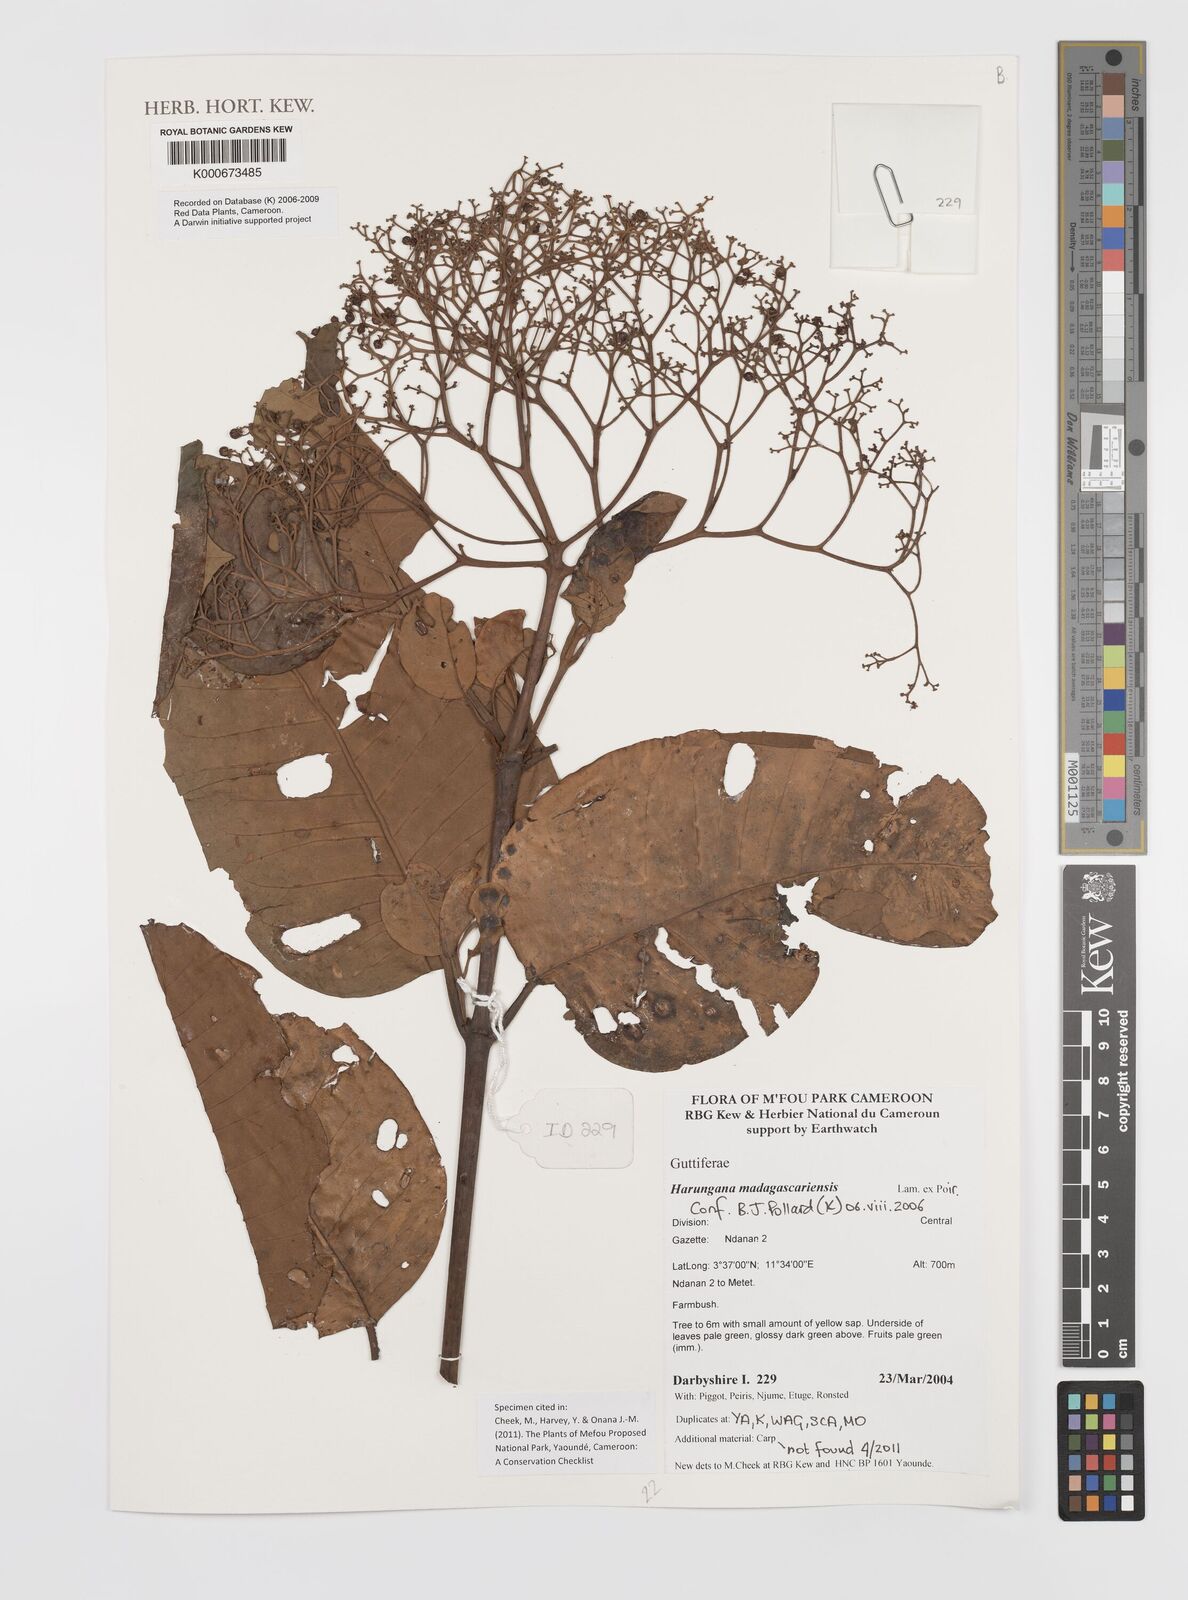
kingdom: Plantae
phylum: Tracheophyta
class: Magnoliopsida
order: Malpighiales
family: Hypericaceae
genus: Harungana
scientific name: Harungana madagascariensis
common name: Orange milktree
